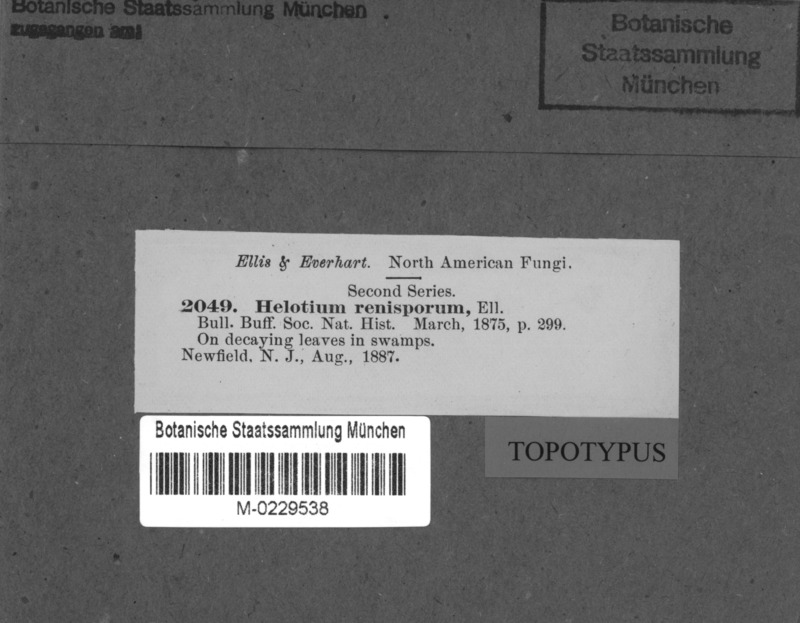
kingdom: Fungi
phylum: Ascomycota
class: Leotiomycetes
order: Helotiales
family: Helotiaceae
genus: Hymenoscyphus
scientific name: Hymenoscyphus renisporus
